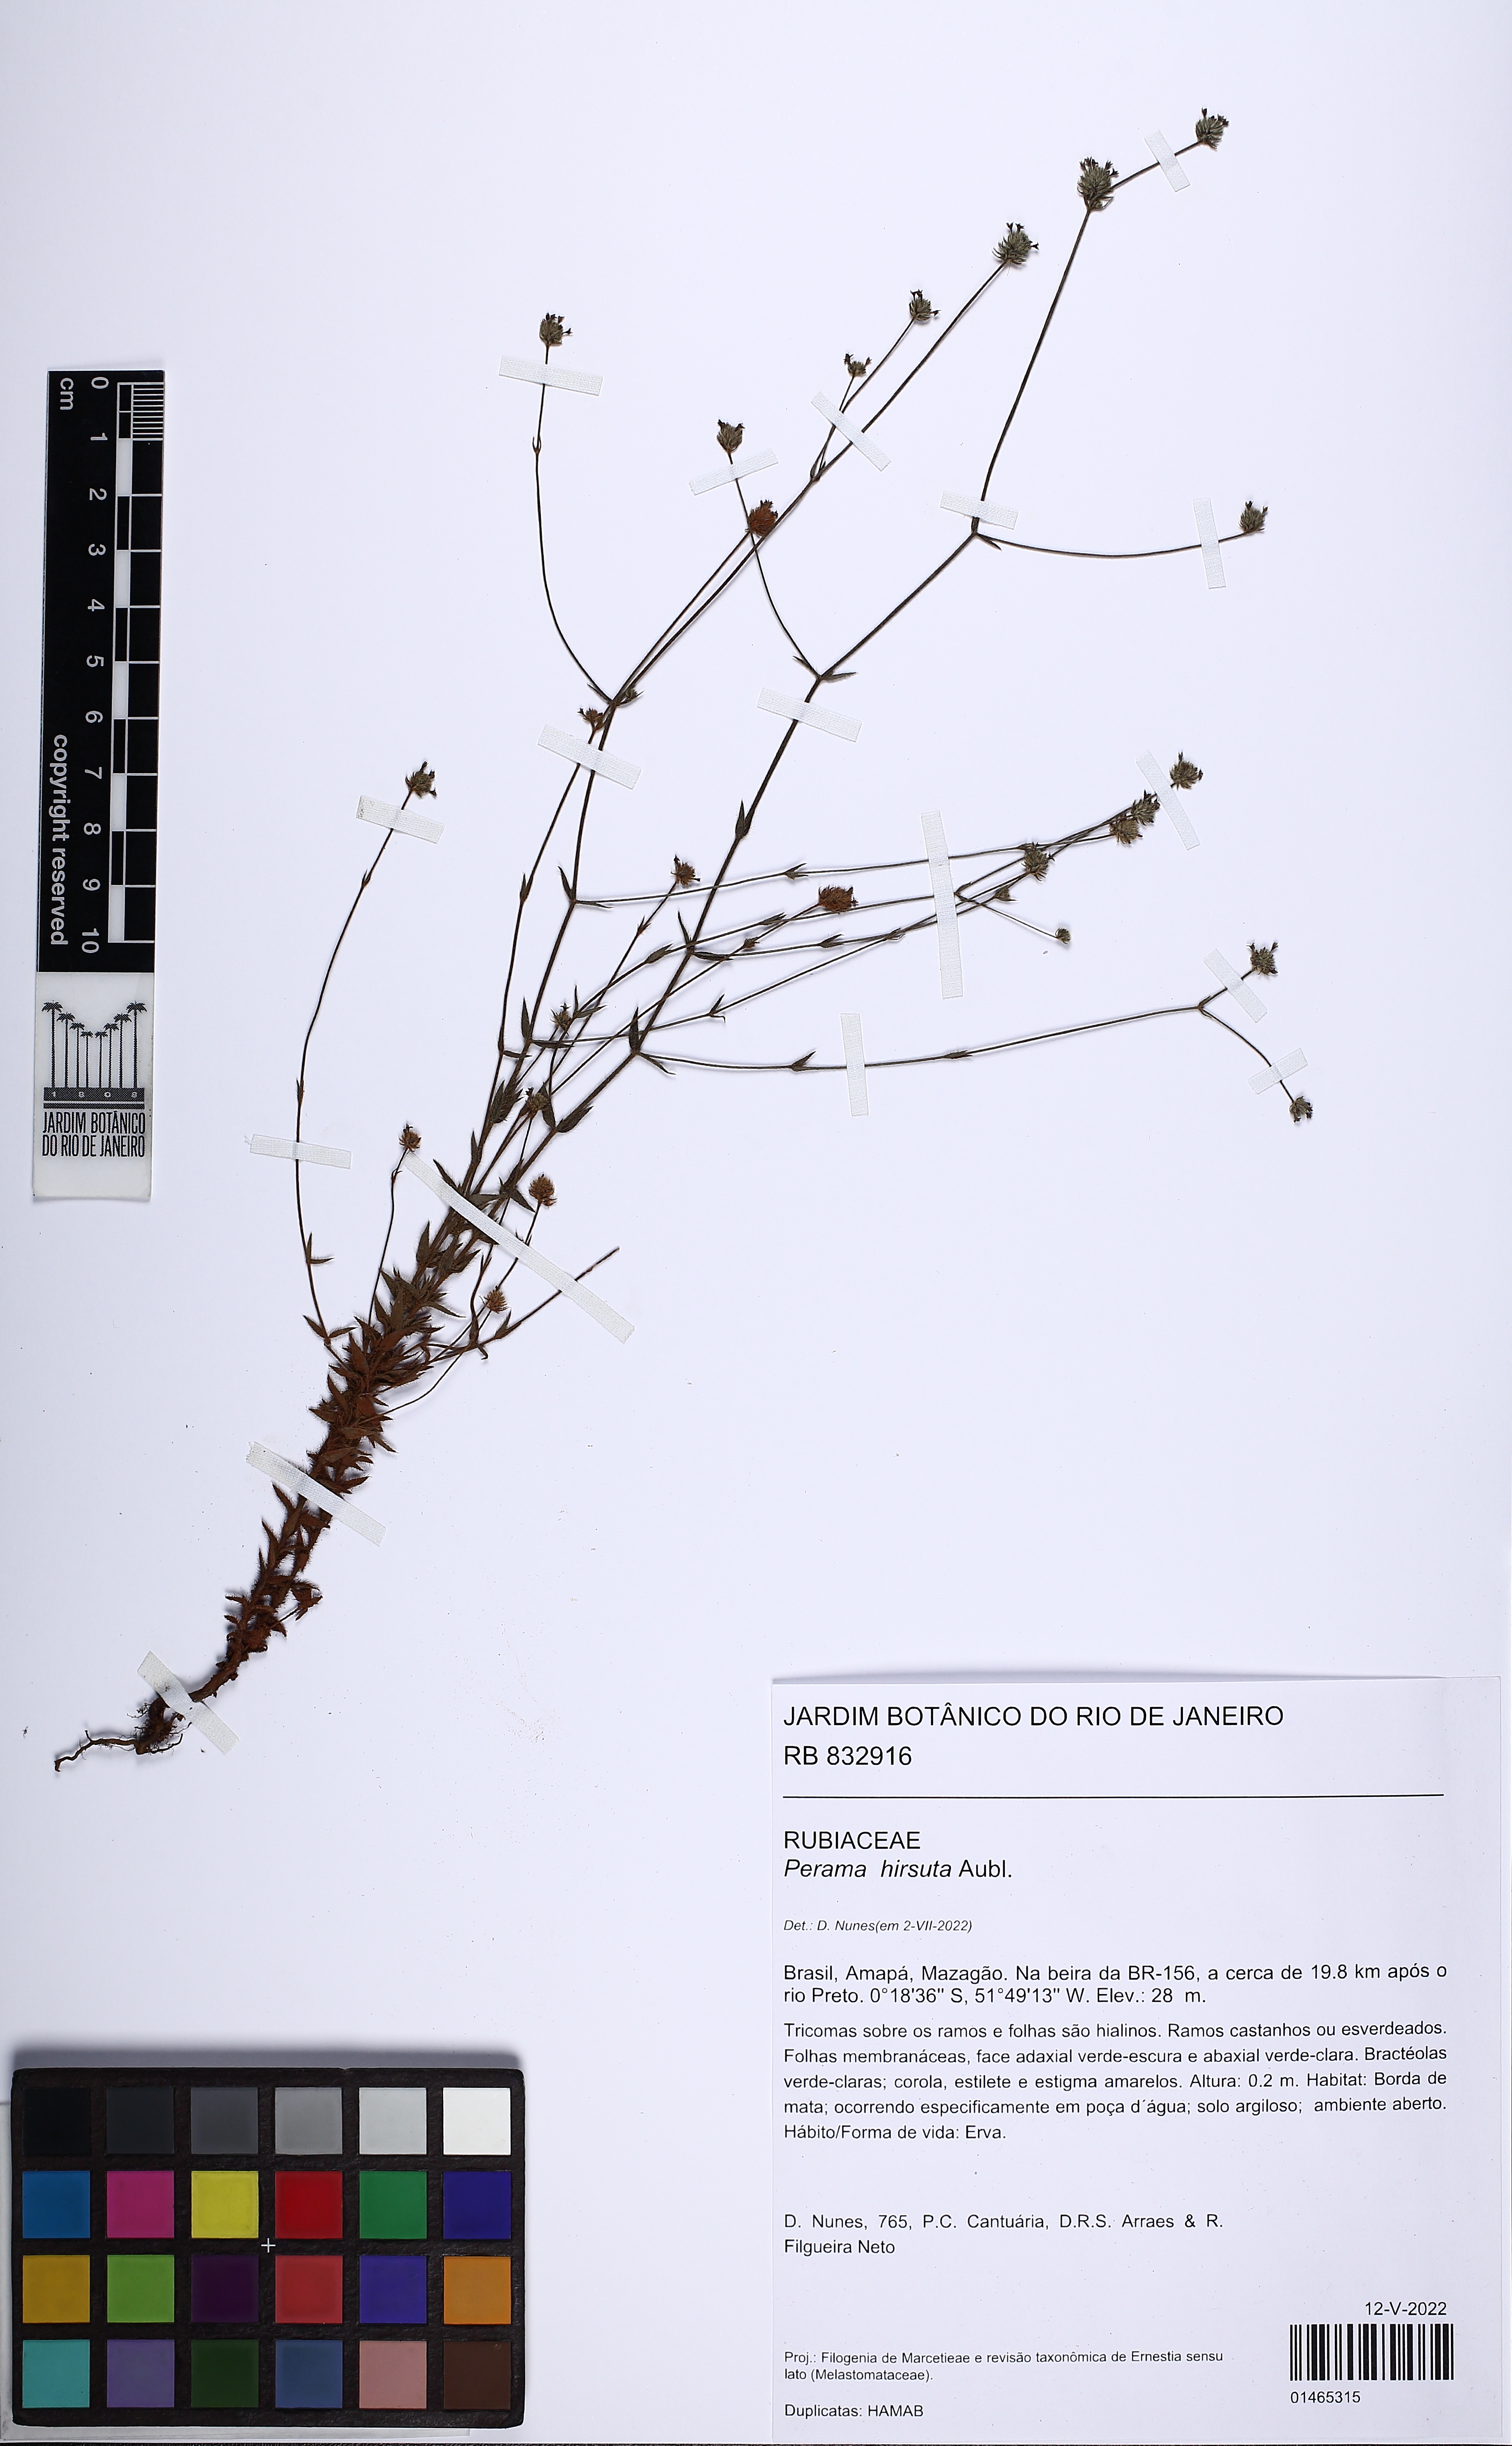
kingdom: Plantae
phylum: Tracheophyta
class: Magnoliopsida
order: Gentianales
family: Rubiaceae
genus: Perama
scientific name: Perama hirsuta
